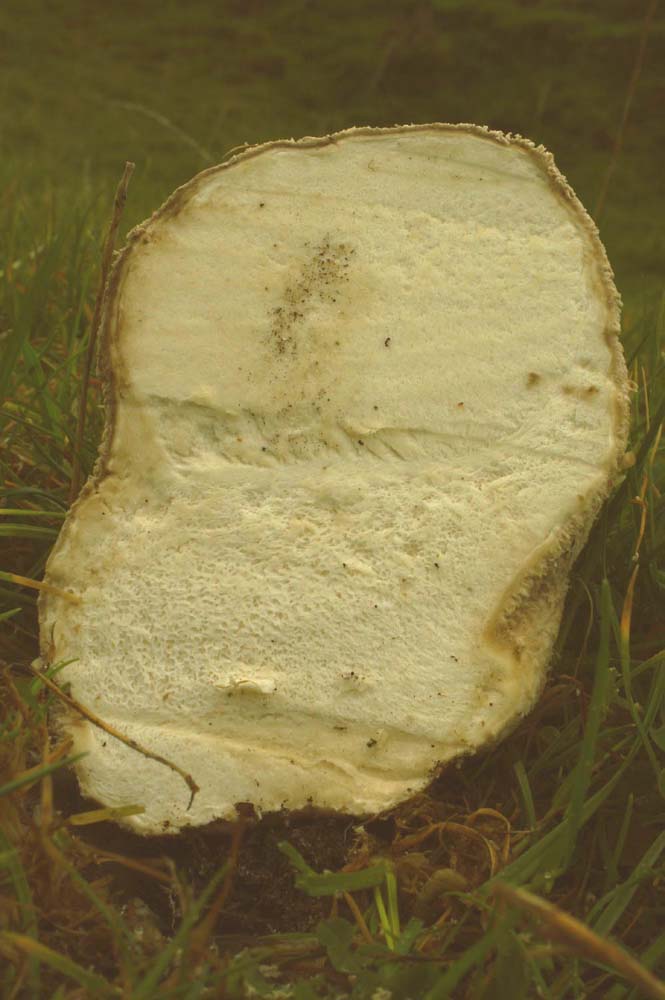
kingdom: Fungi
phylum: Basidiomycota
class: Agaricomycetes
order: Agaricales
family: Lycoperdaceae
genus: Bovistella
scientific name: Bovistella utriformis
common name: skællet støvbold
